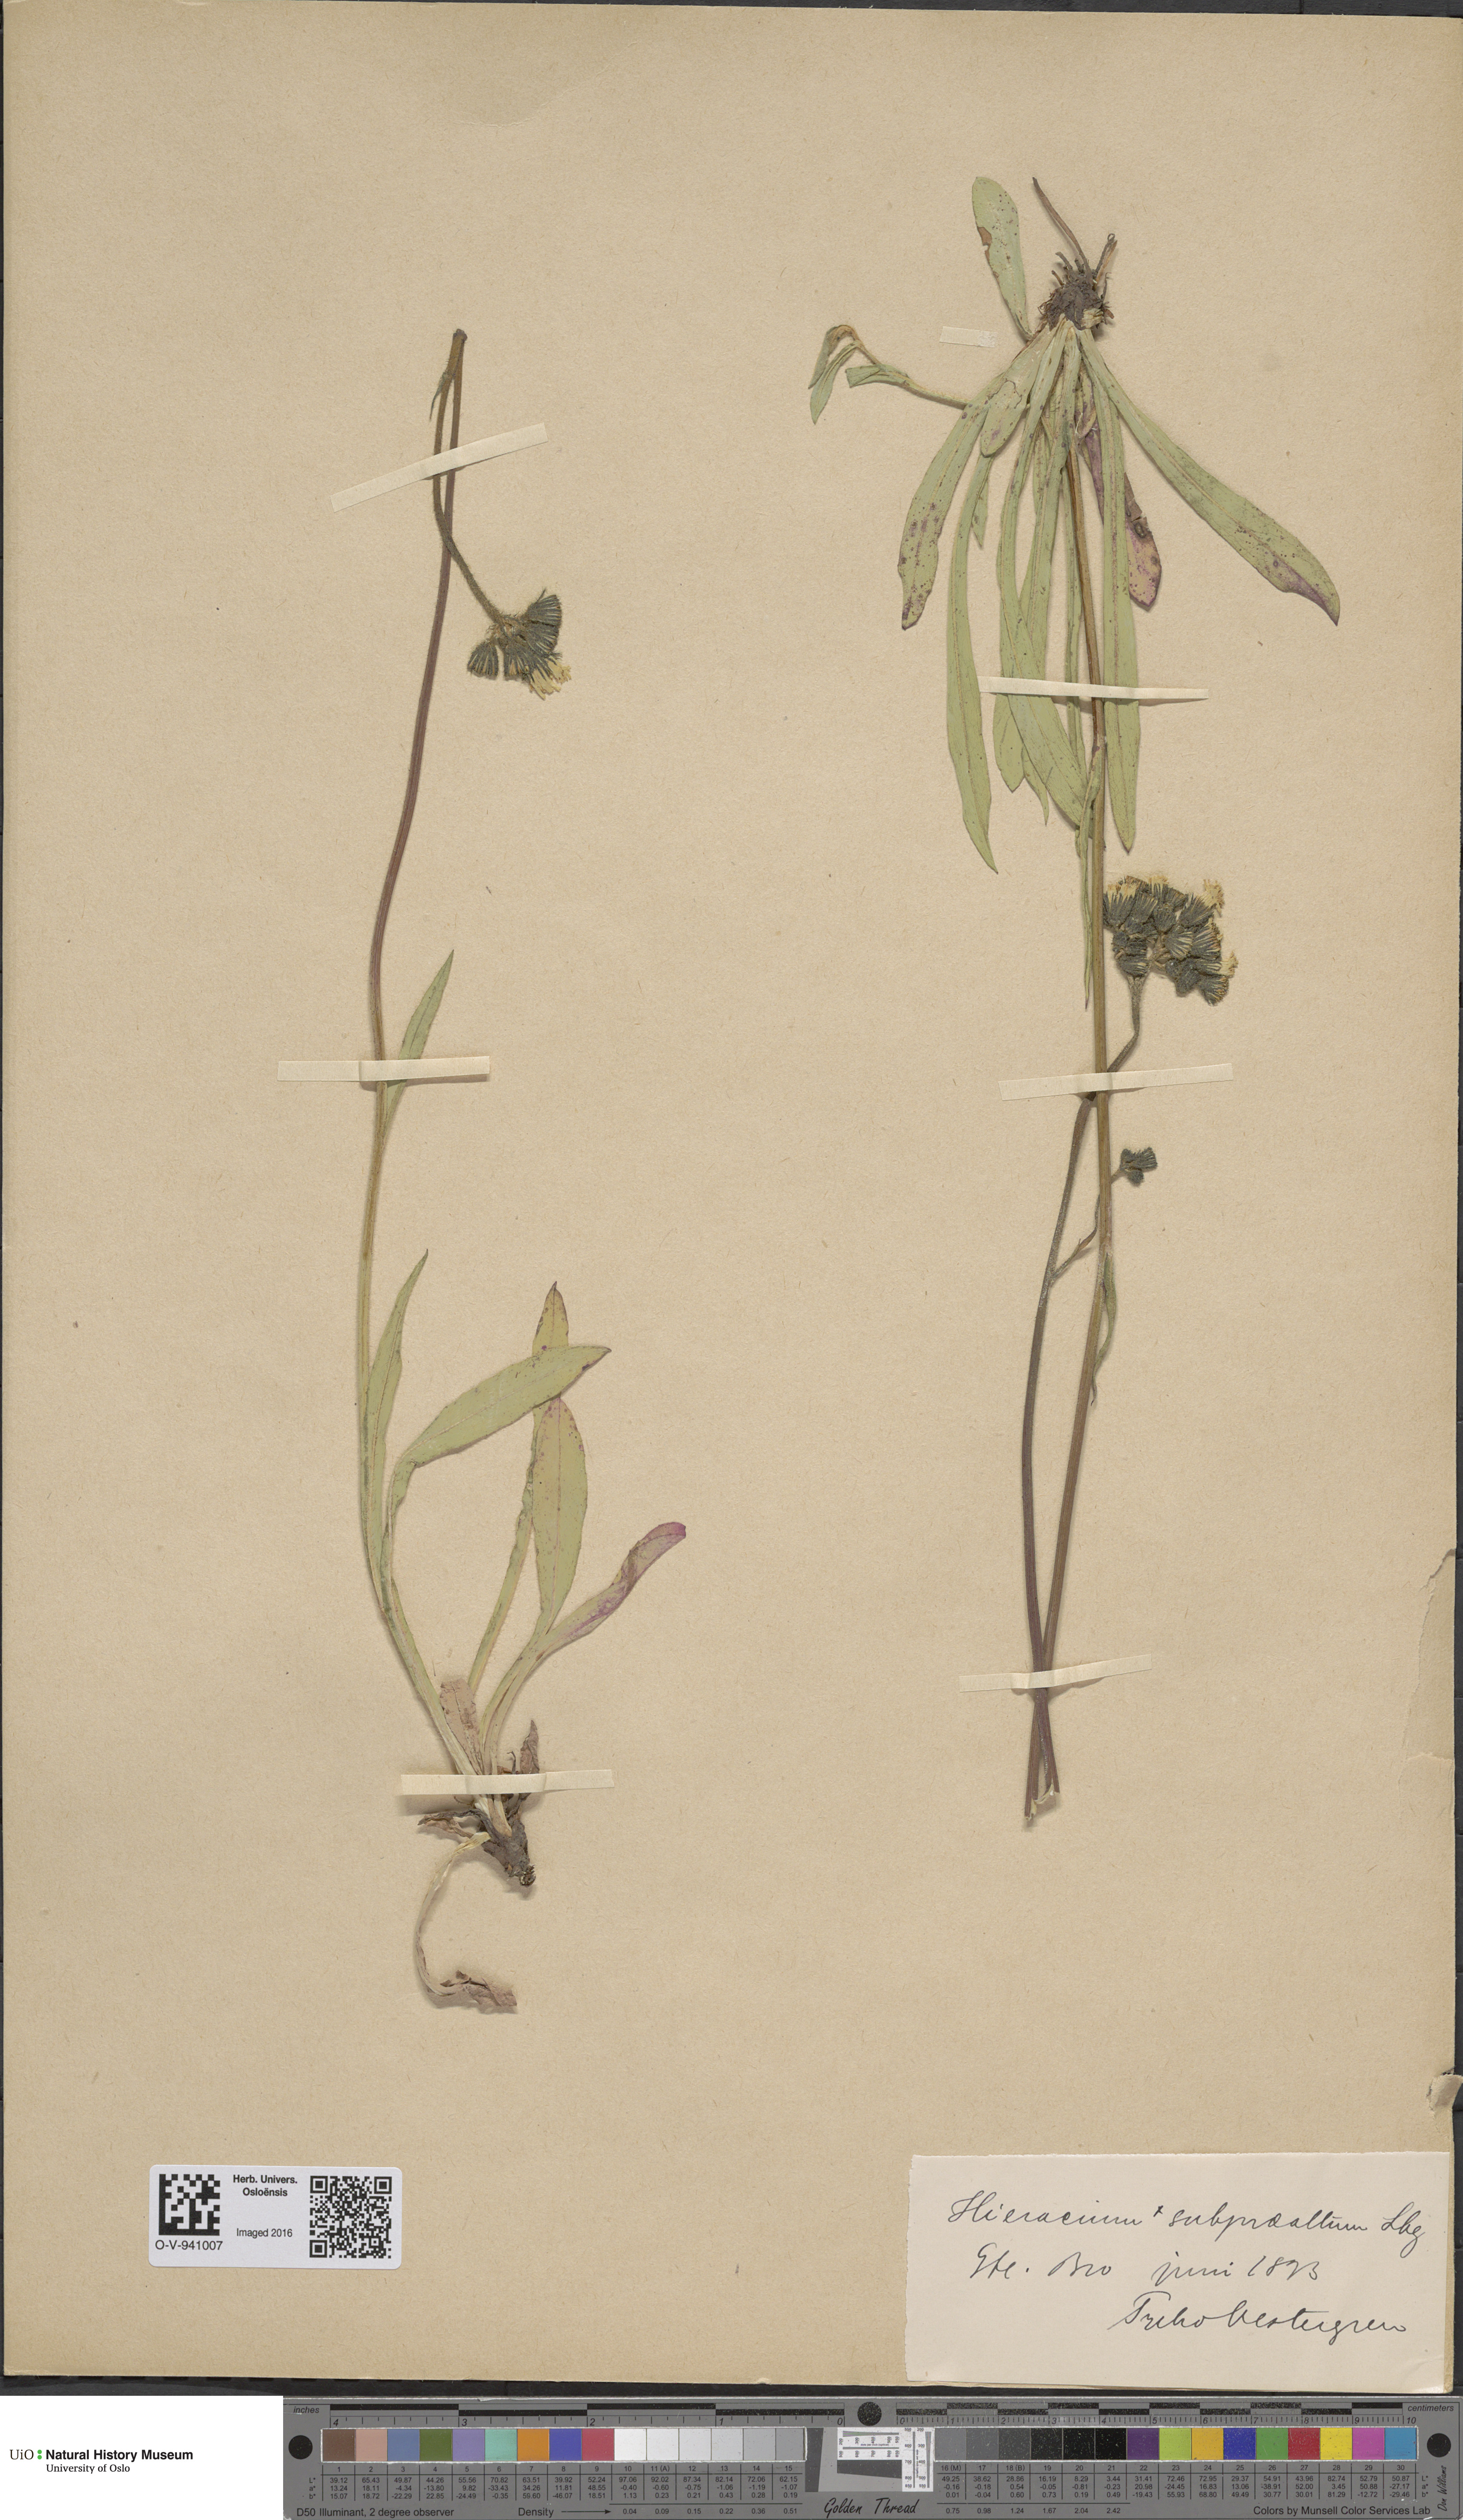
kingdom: Plantae
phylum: Tracheophyta
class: Magnoliopsida
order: Asterales
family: Asteraceae
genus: Pilosella
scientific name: Pilosella glomerata
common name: Queen devil hawkweed
